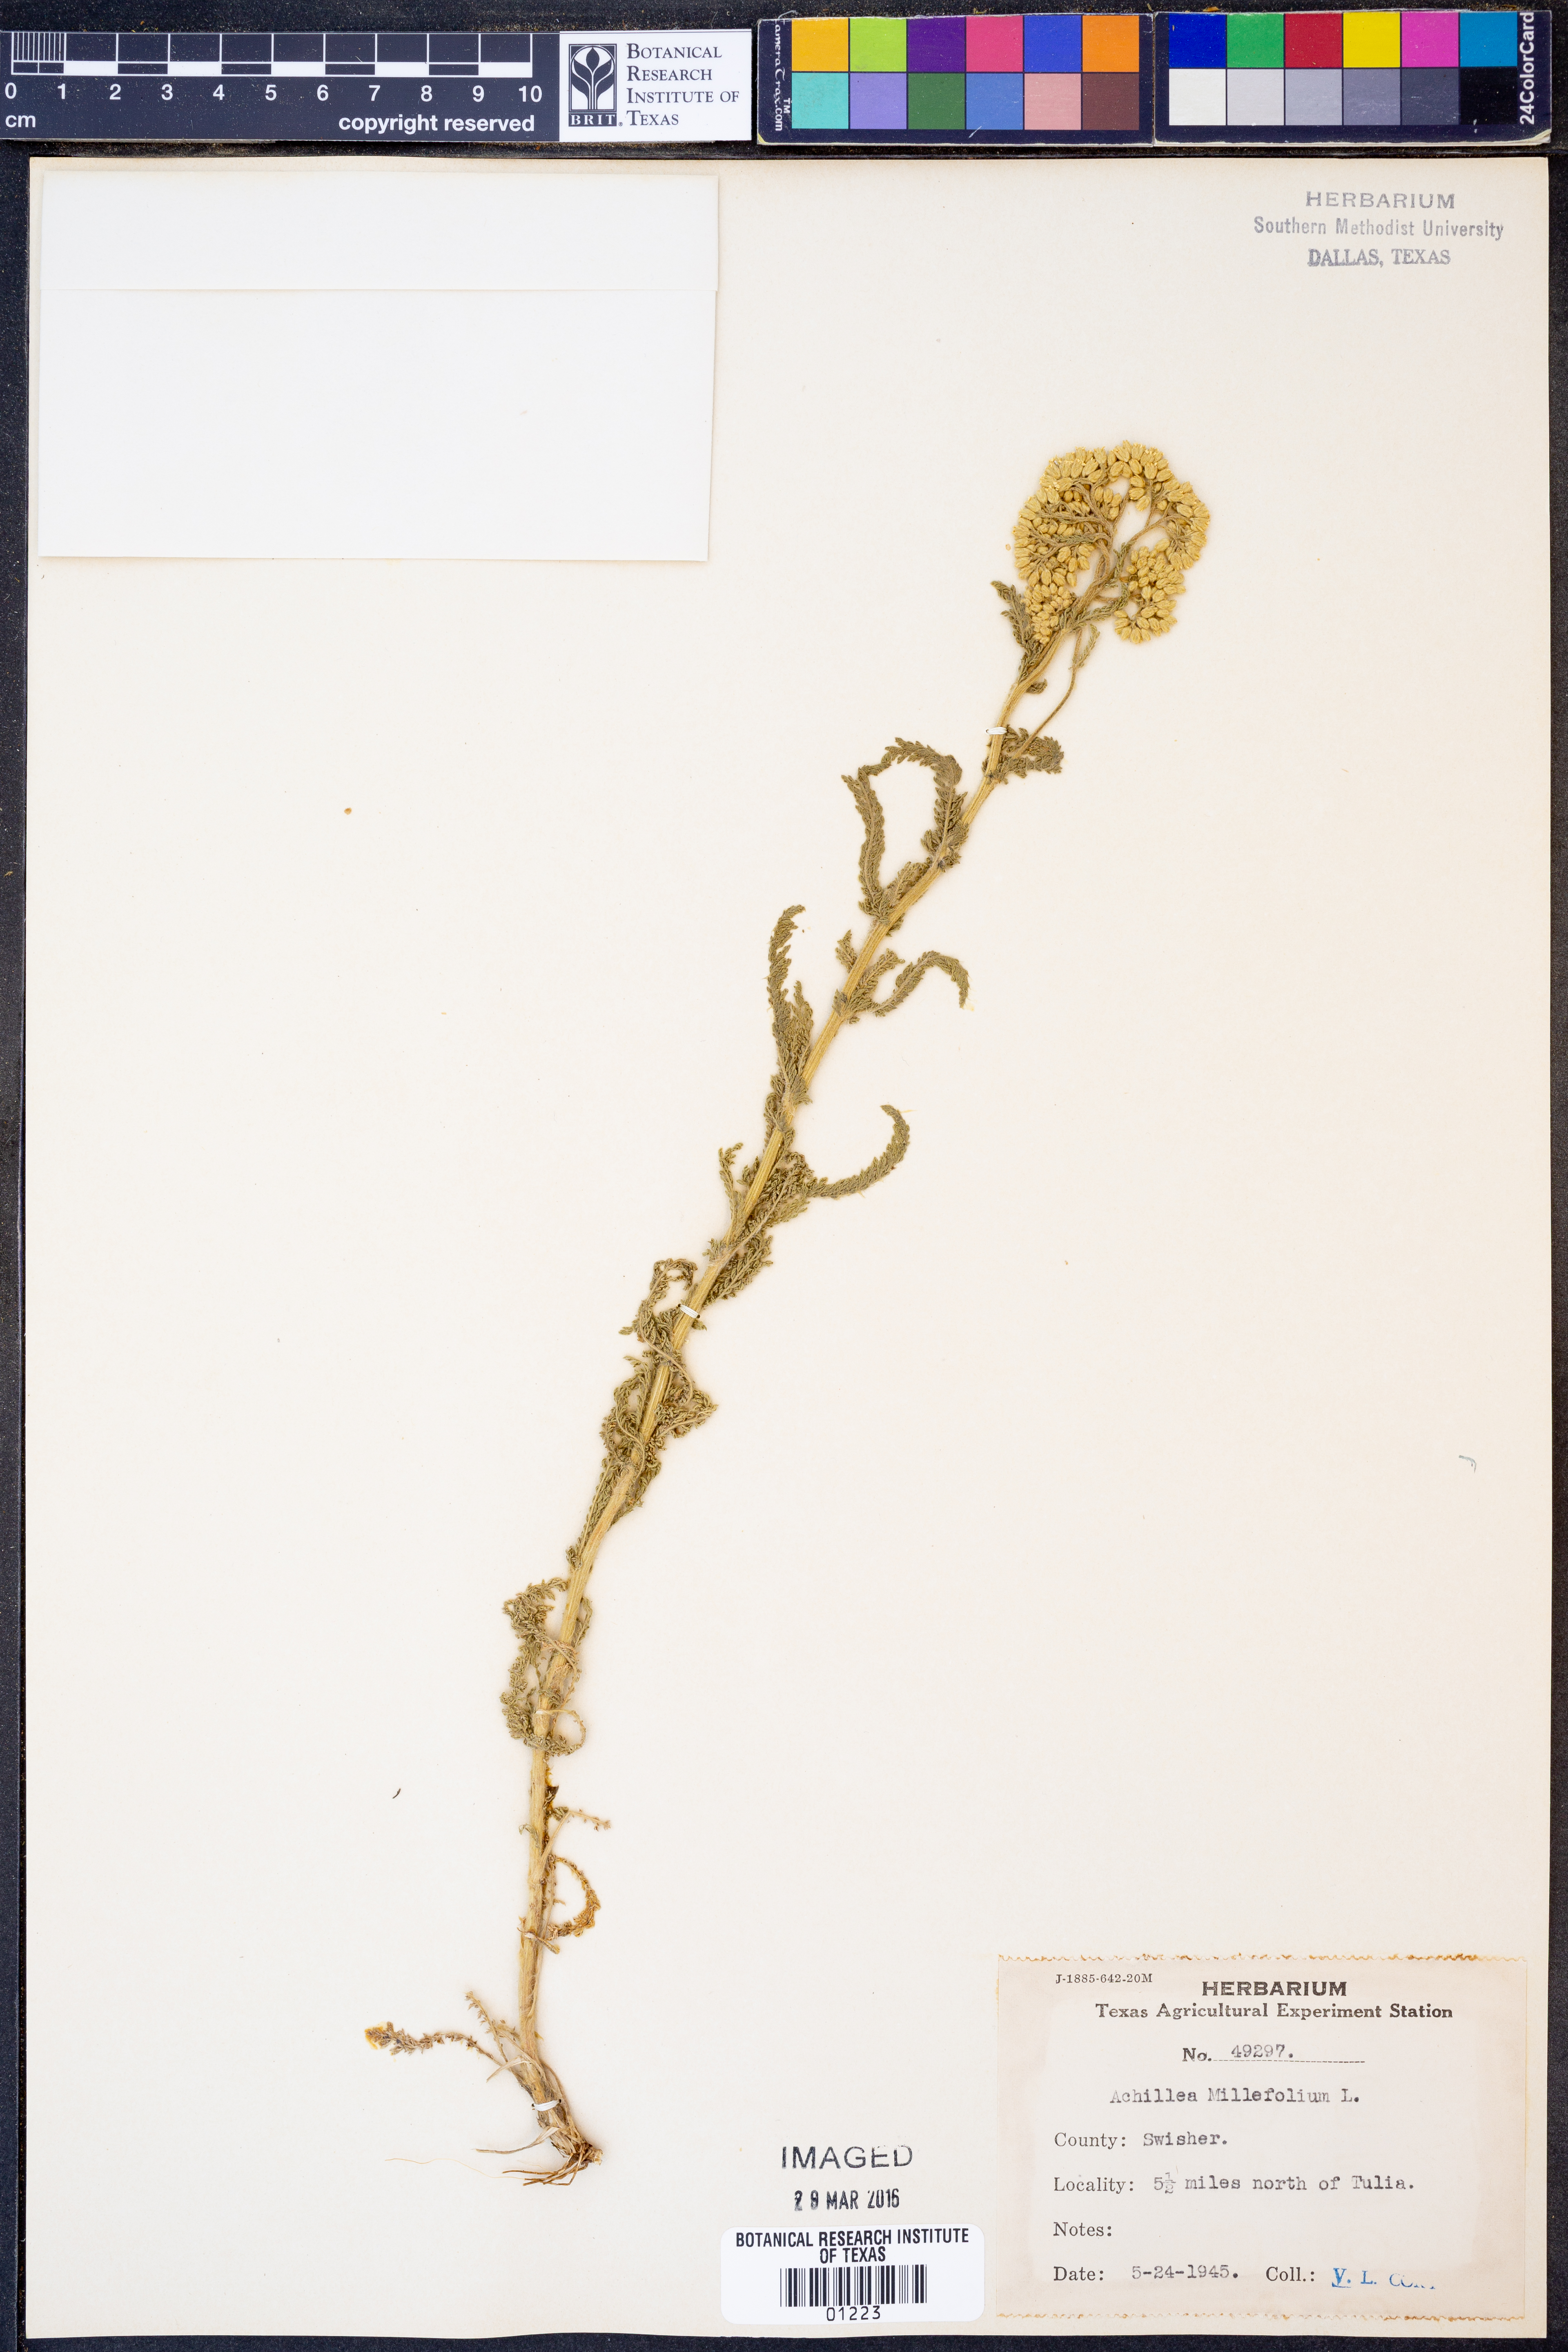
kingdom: Plantae
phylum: Tracheophyta
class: Magnoliopsida
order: Asterales
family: Asteraceae
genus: Achillea
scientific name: Achillea millefolium
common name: Yarrow
